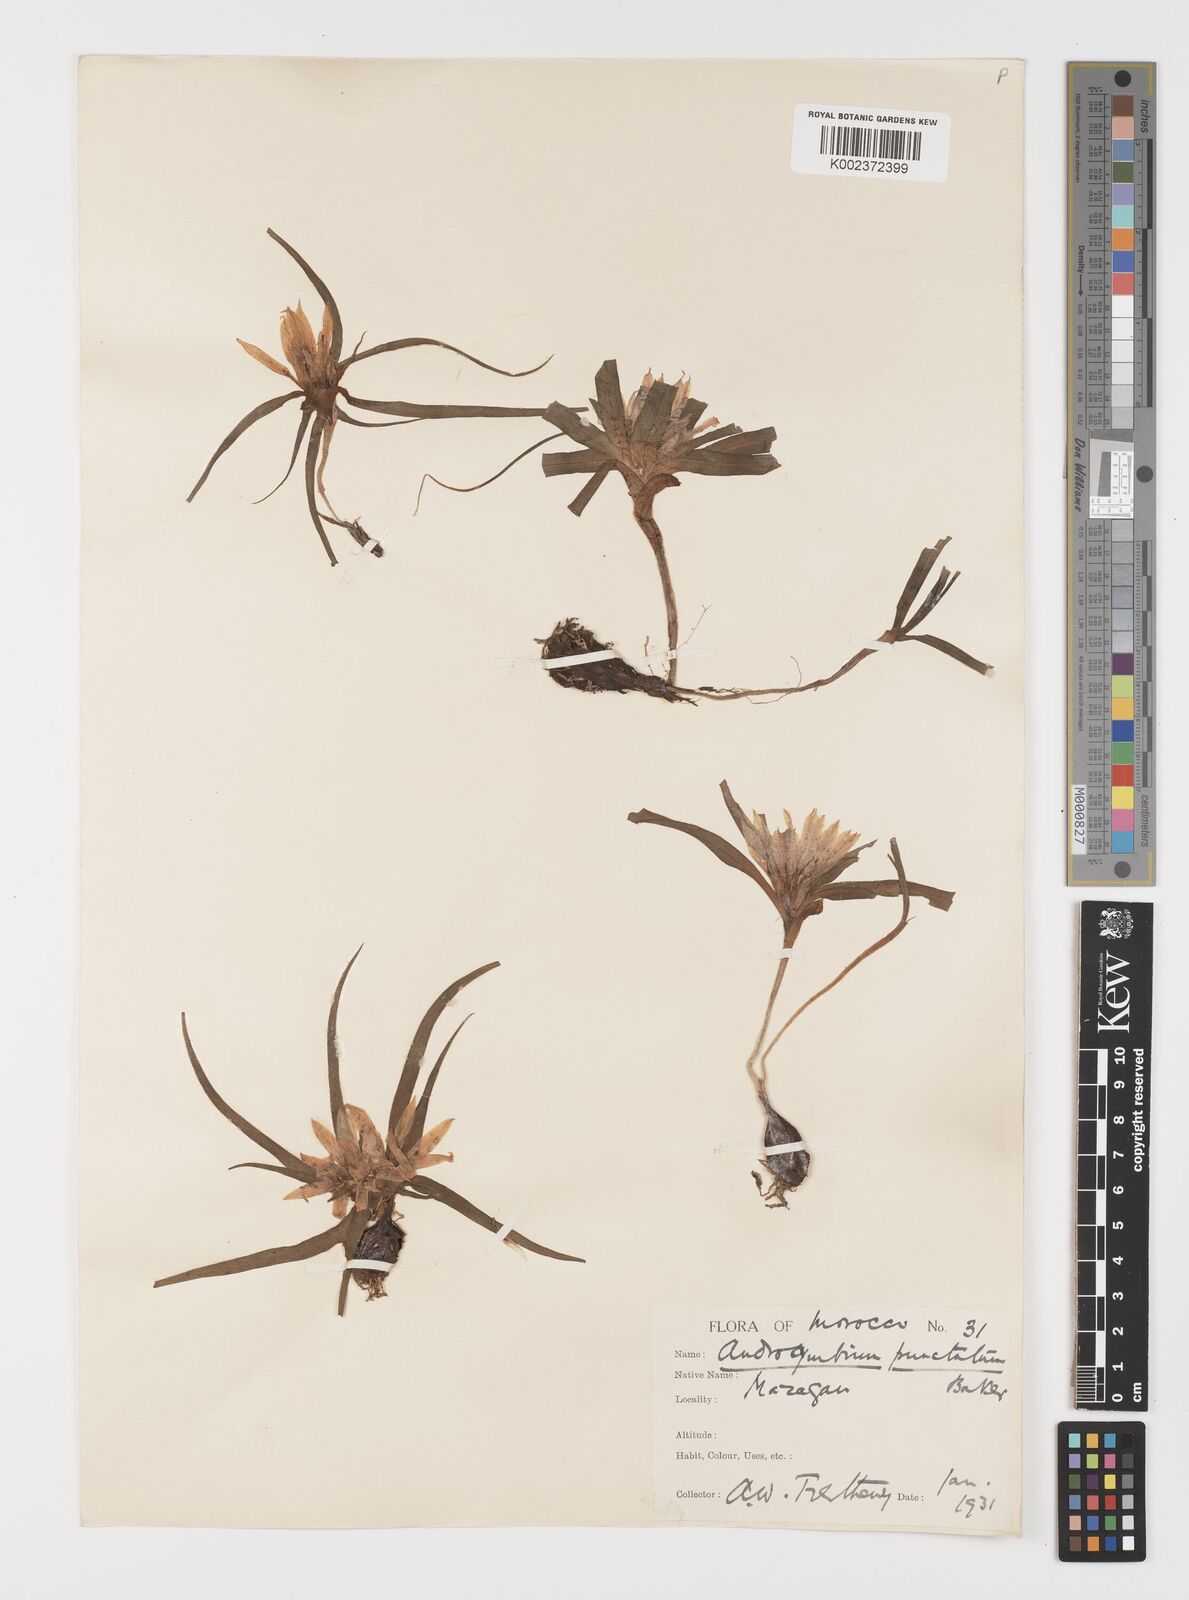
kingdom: Plantae
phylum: Tracheophyta
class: Liliopsida
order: Liliales
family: Colchicaceae
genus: Colchicum
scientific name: Colchicum gramineum
